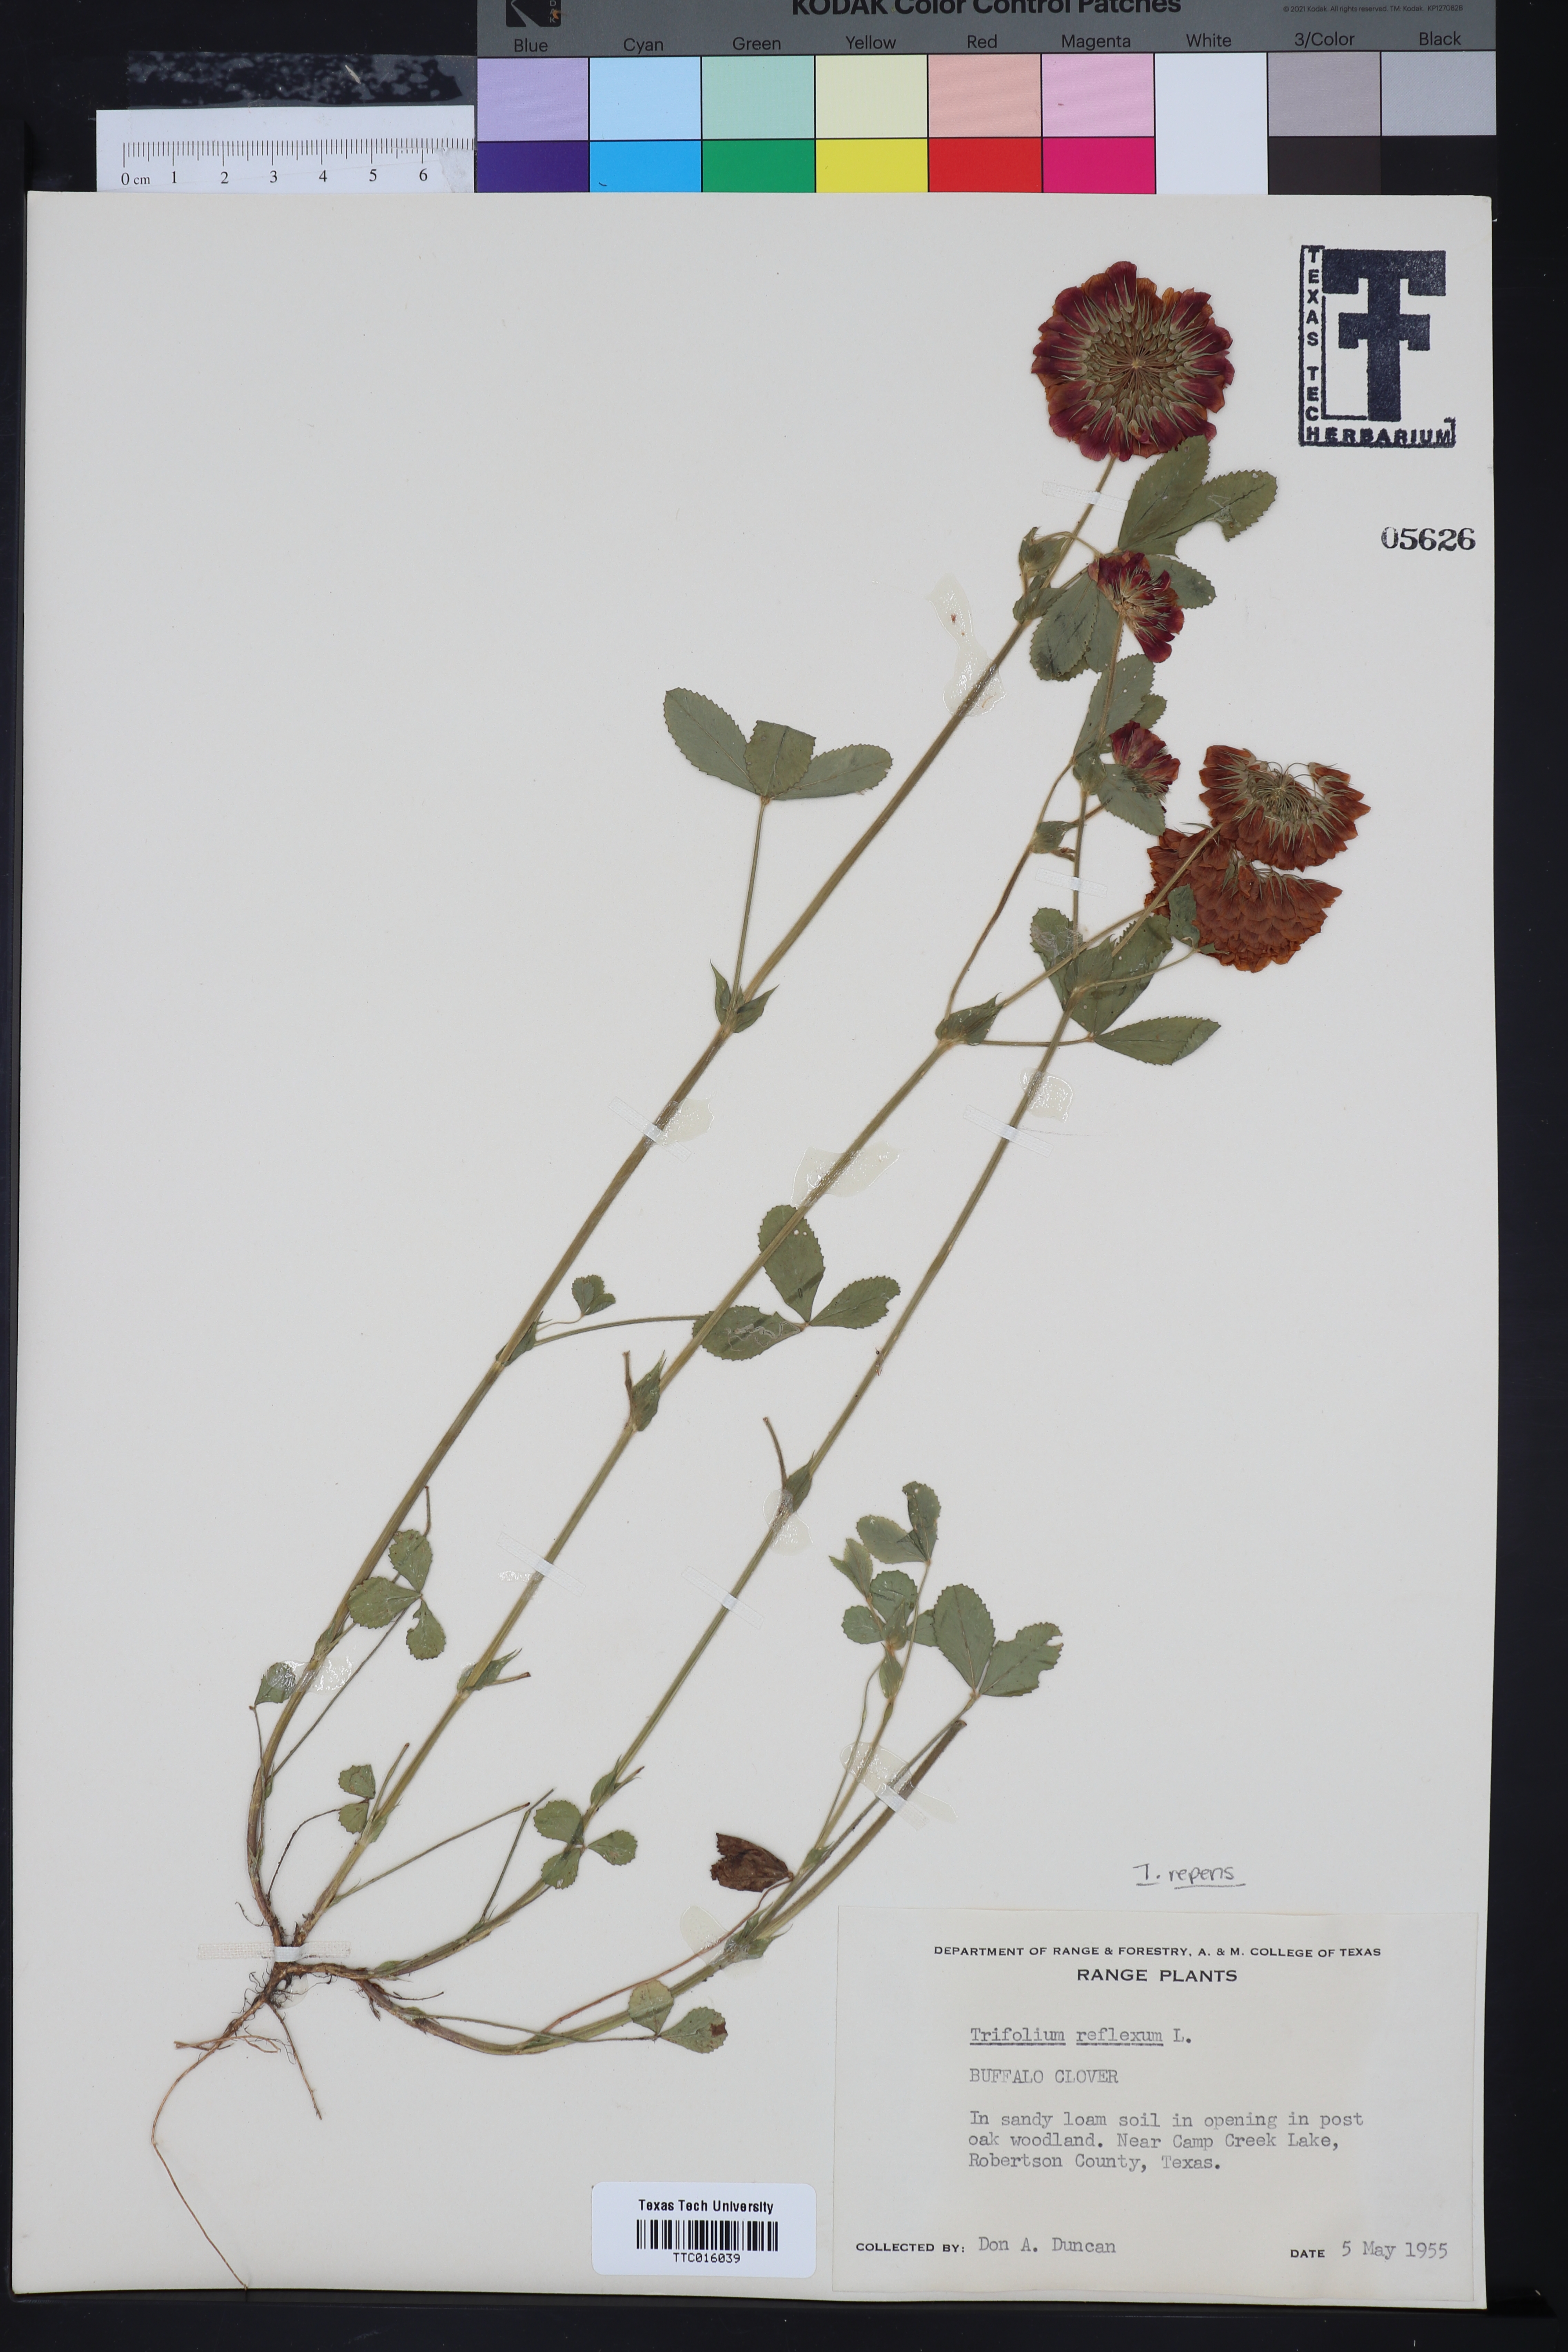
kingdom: Plantae
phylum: Tracheophyta
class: Magnoliopsida
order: Fabales
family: Fabaceae
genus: Trifolium
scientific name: Trifolium reflexum
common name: Buffalo clover
